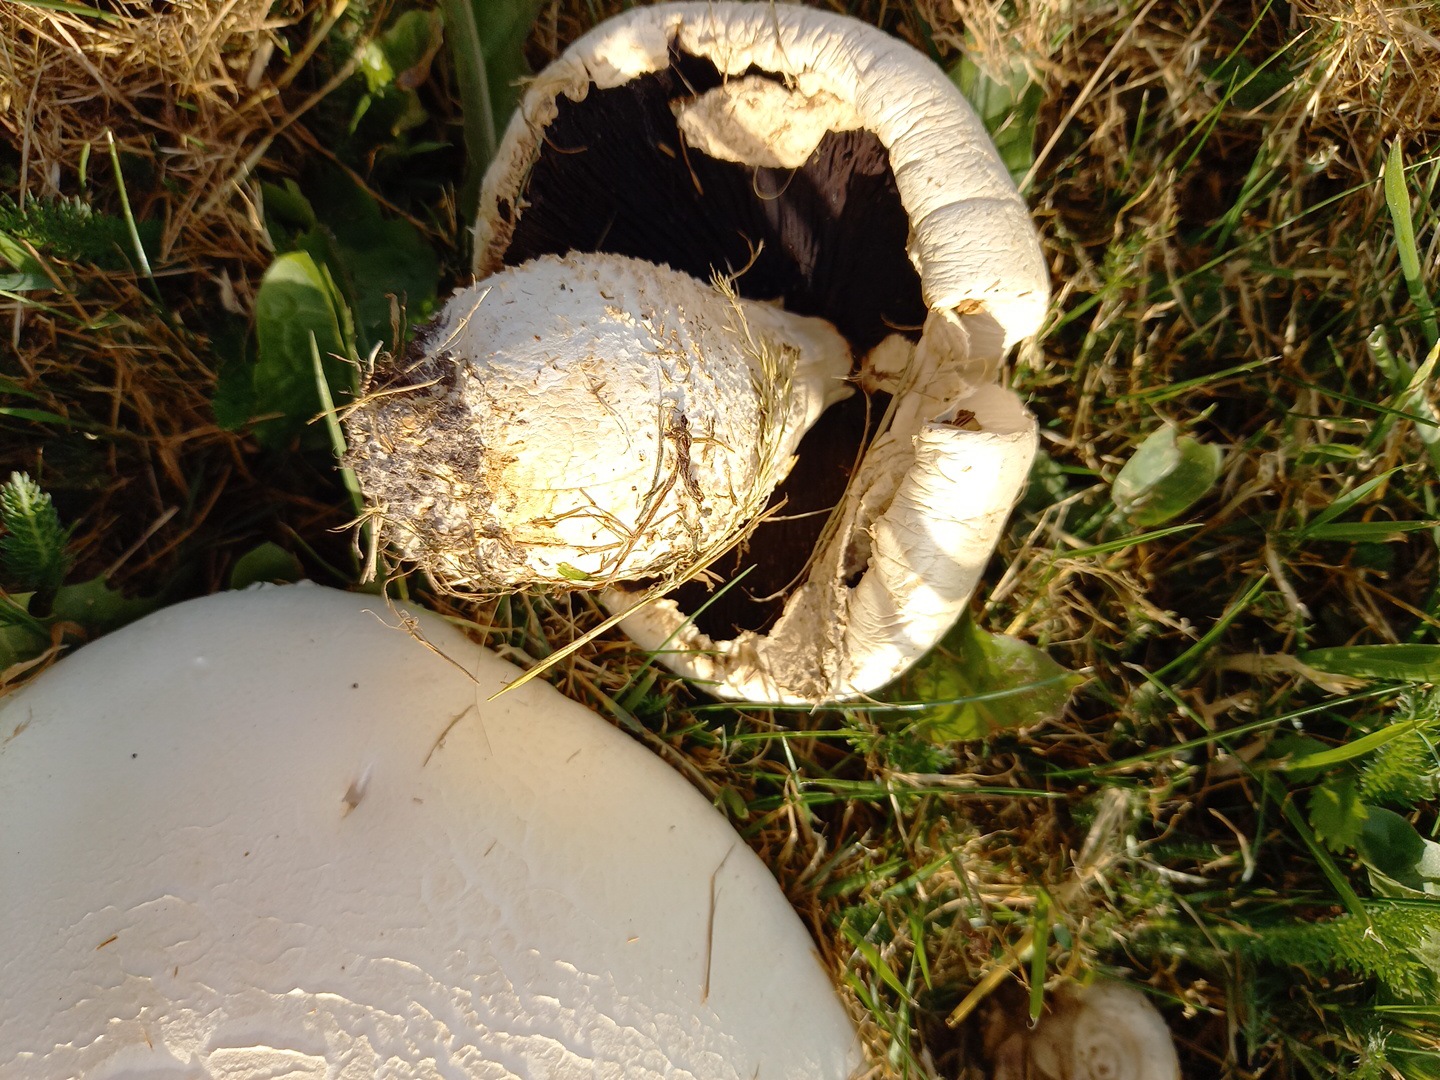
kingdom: Fungi
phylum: Basidiomycota
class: Agaricomycetes
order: Agaricales
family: Agaricaceae
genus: Agaricus
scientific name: Agaricus
